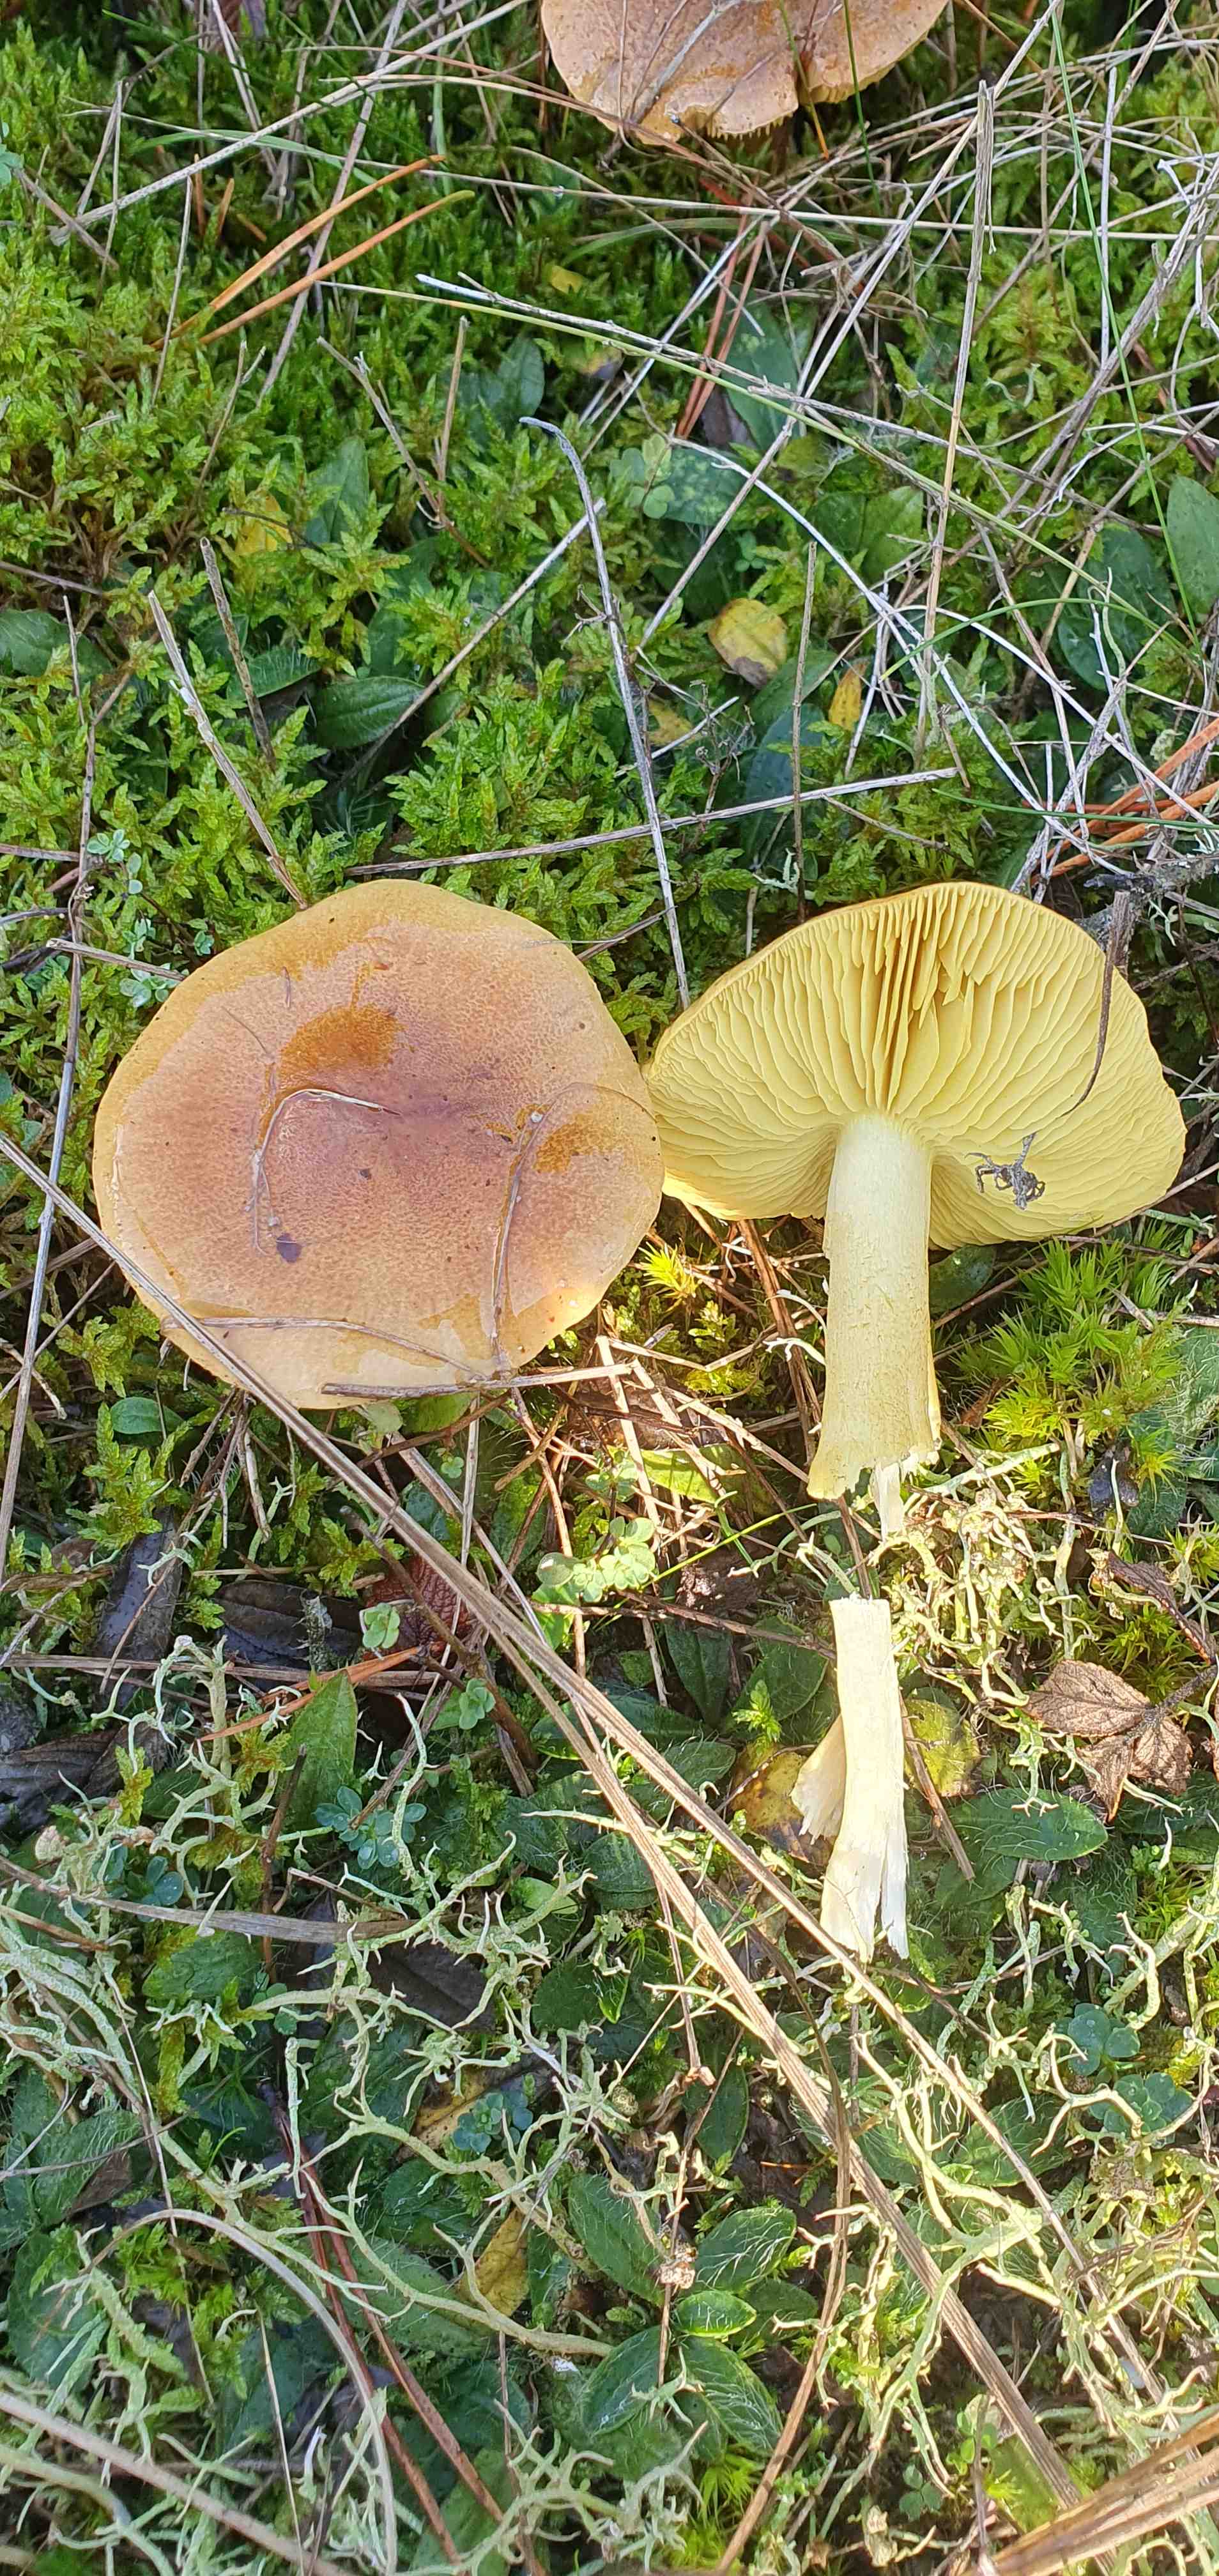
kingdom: Fungi
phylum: Basidiomycota
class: Agaricomycetes
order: Agaricales
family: Tricholomataceae
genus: Tricholoma
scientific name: Tricholoma
